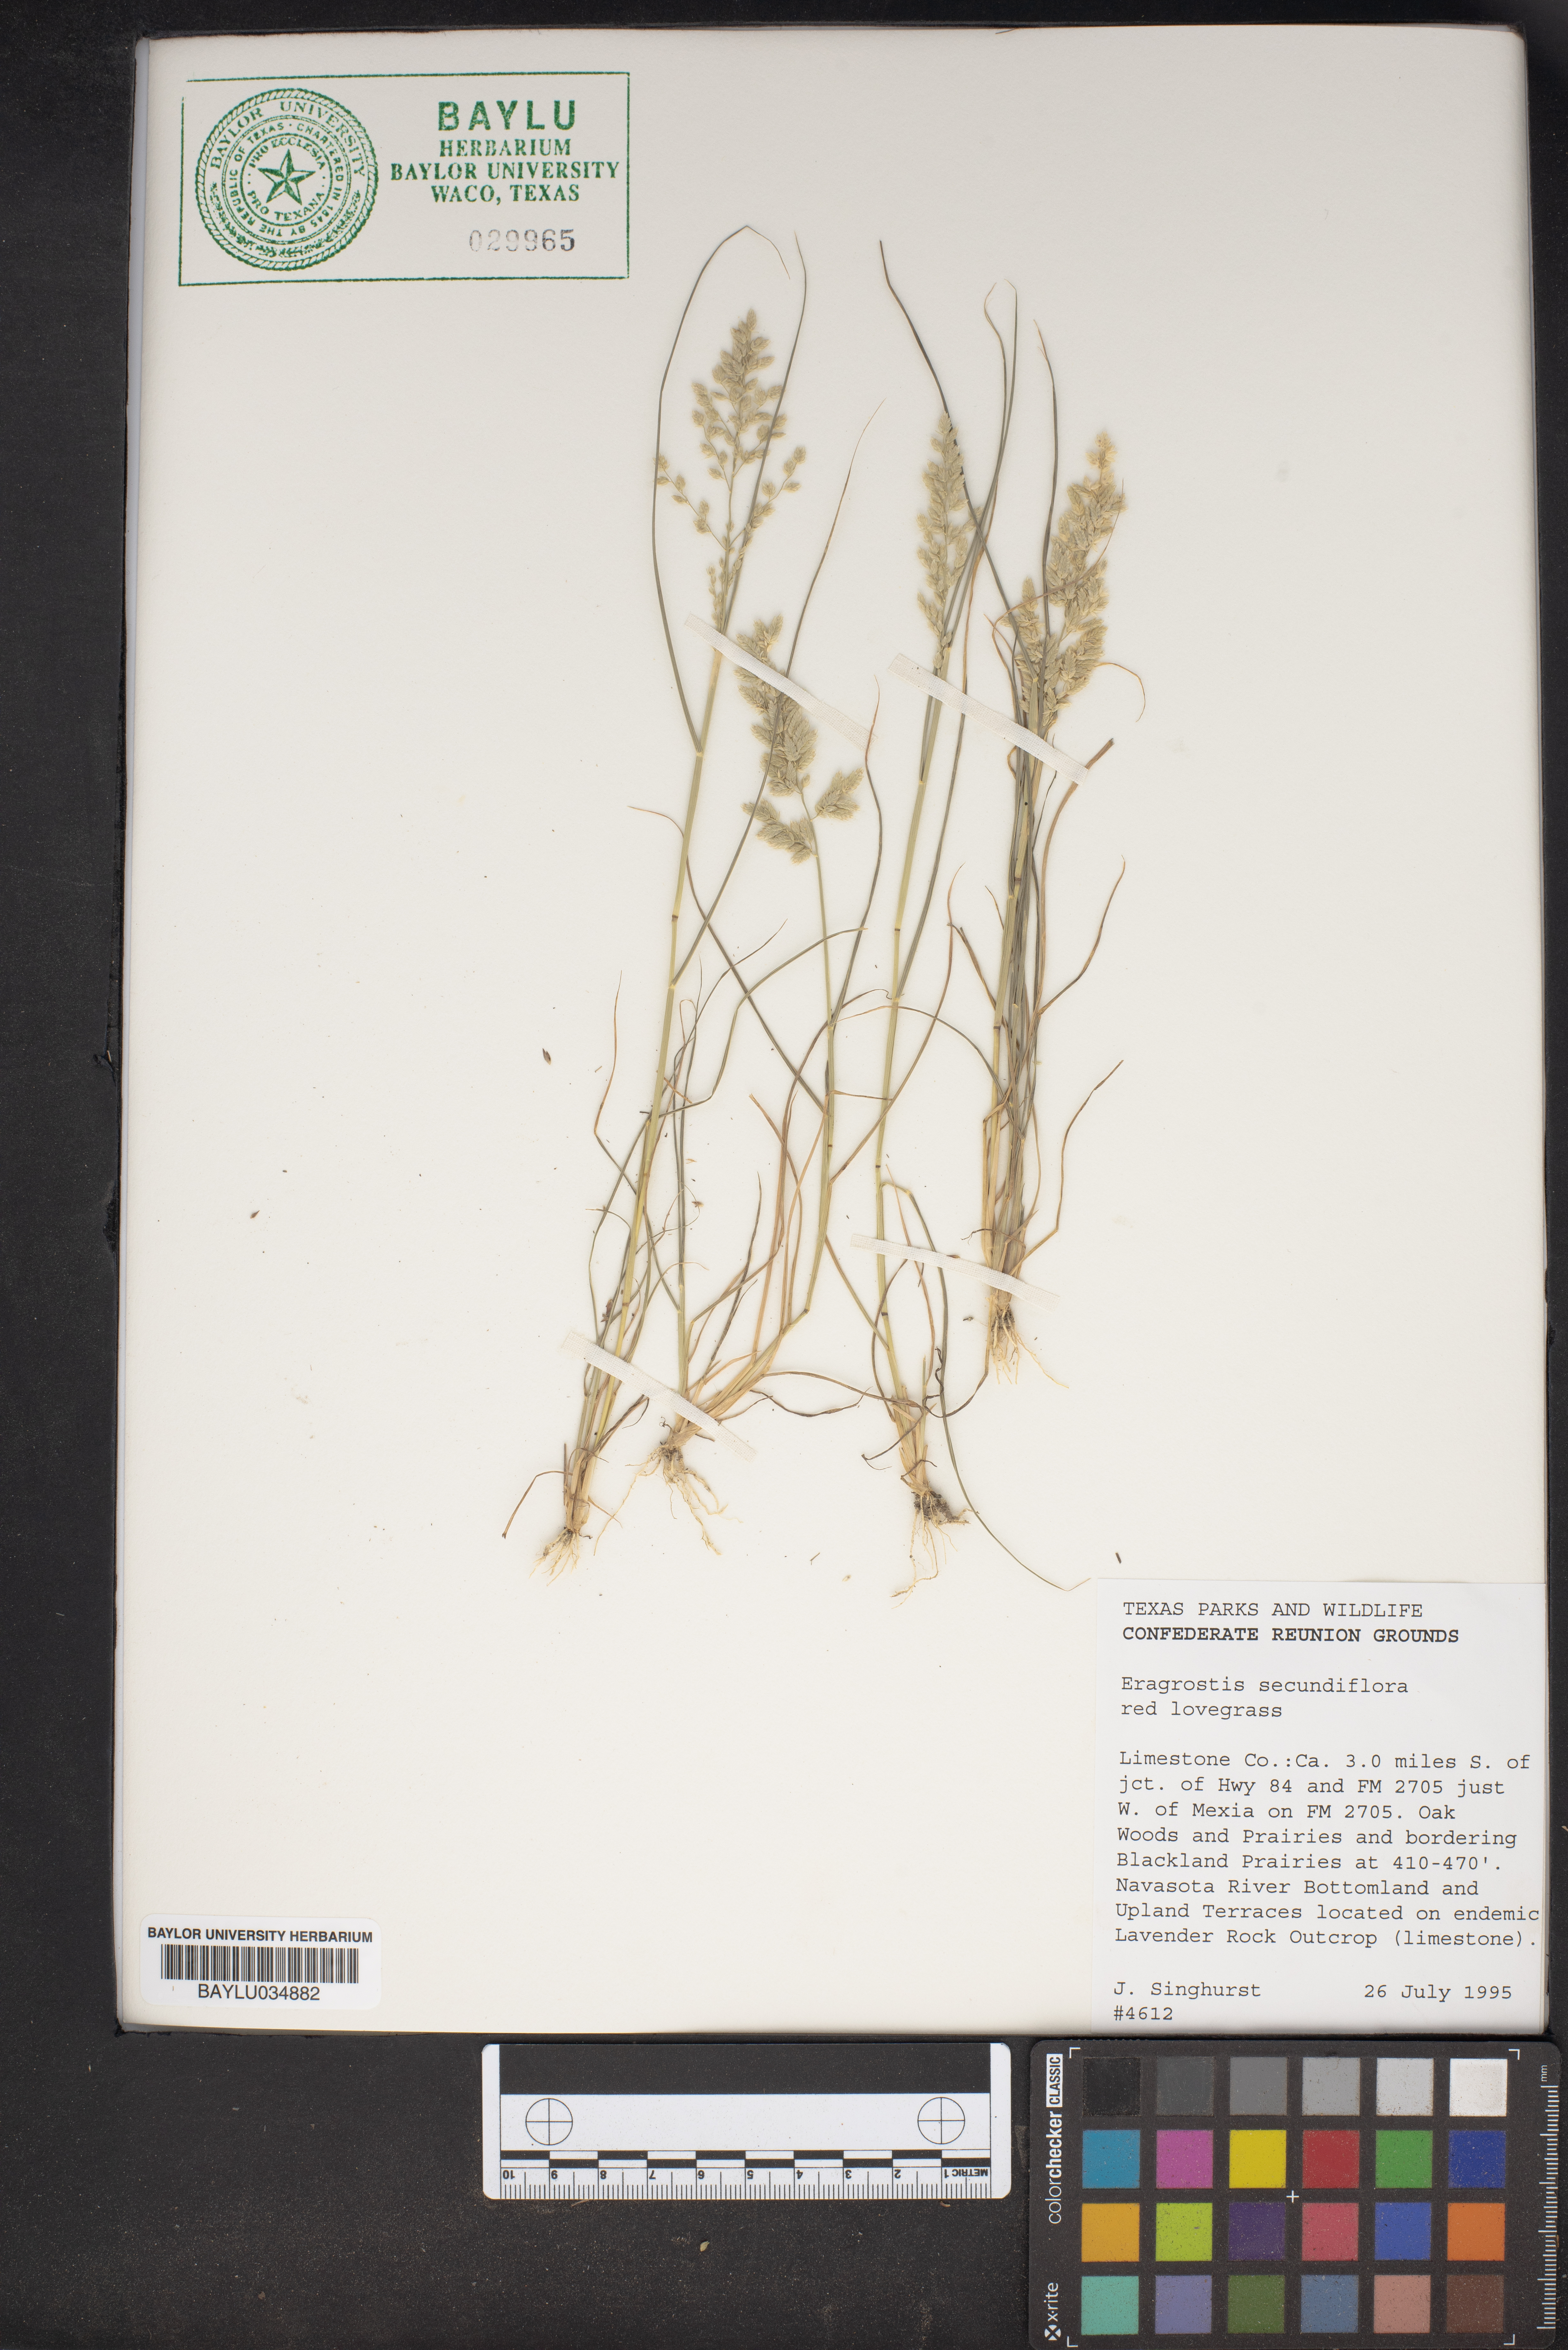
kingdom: Plantae
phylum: Tracheophyta
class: Liliopsida
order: Poales
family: Poaceae
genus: Eragrostis
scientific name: Eragrostis secundiflora
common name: Red love grass
